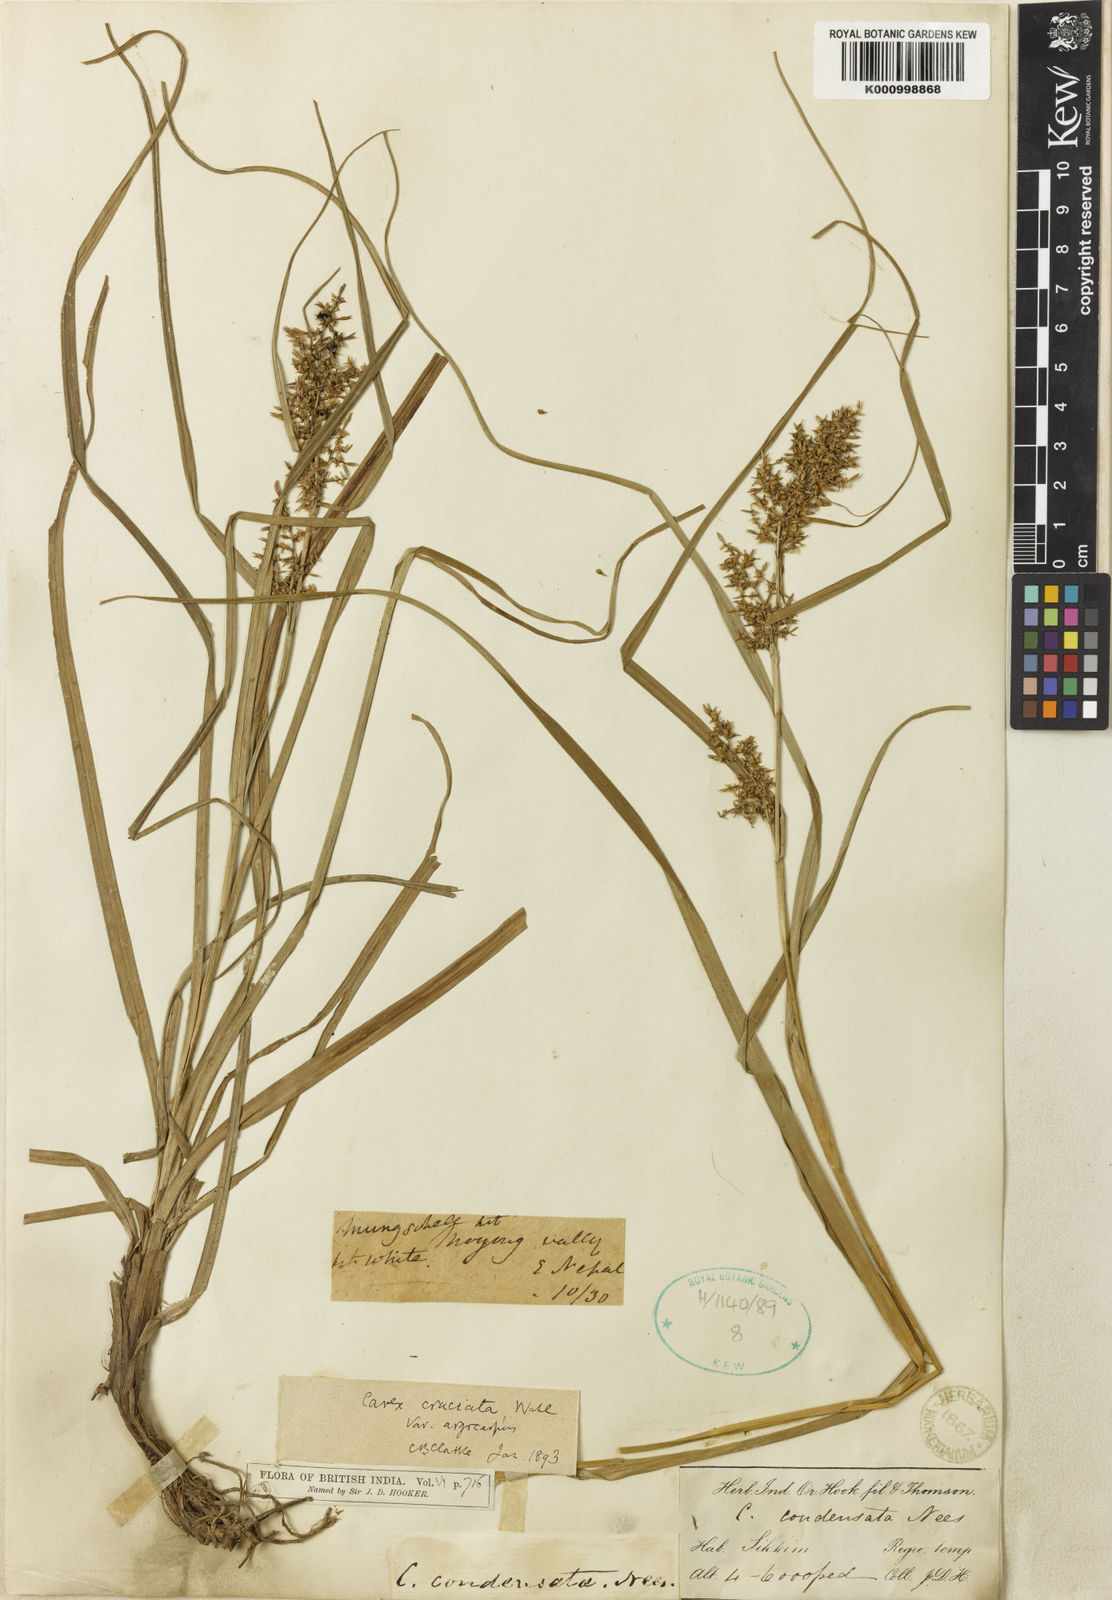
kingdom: Plantae
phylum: Tracheophyta
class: Liliopsida
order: Poales
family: Cyperaceae
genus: Carex
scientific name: Carex cruciata
